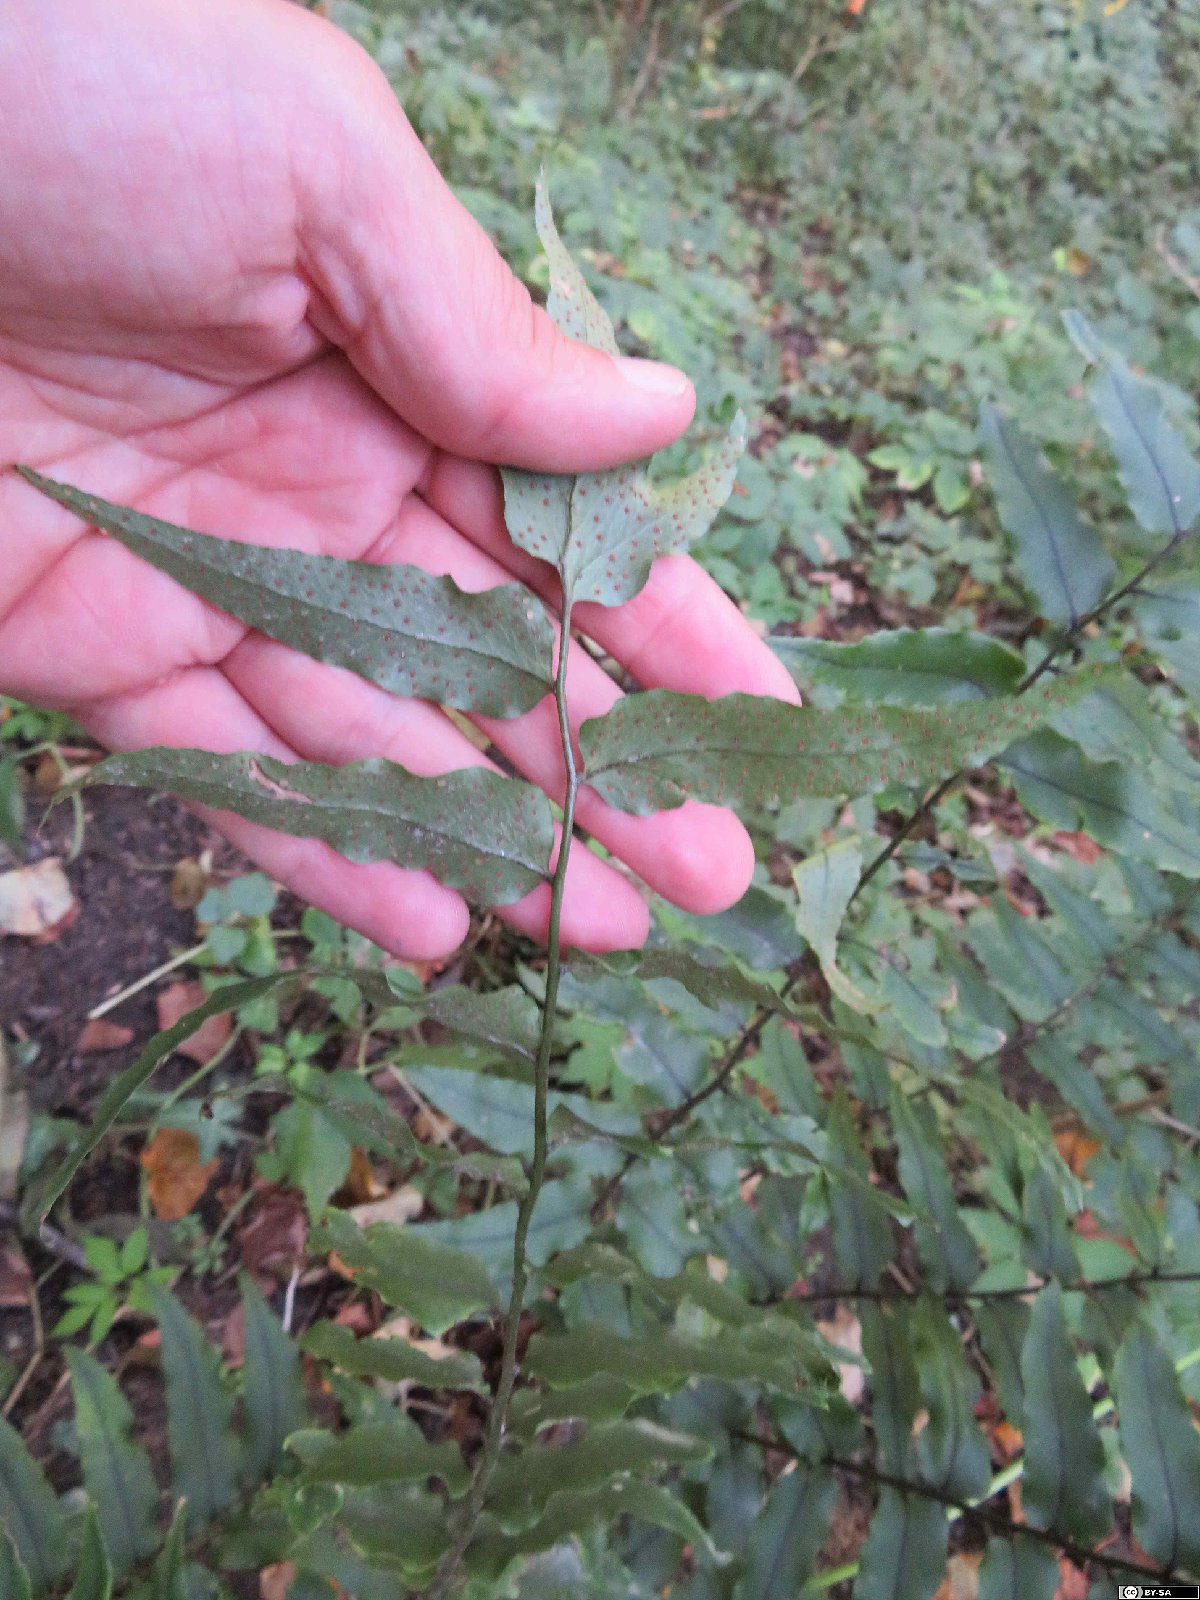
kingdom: Plantae
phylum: Tracheophyta
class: Polypodiopsida
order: Polypodiales
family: Dryopteridaceae
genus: Cyrtomium
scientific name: Cyrtomium fortunei
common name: Asian netvein hollyfern
